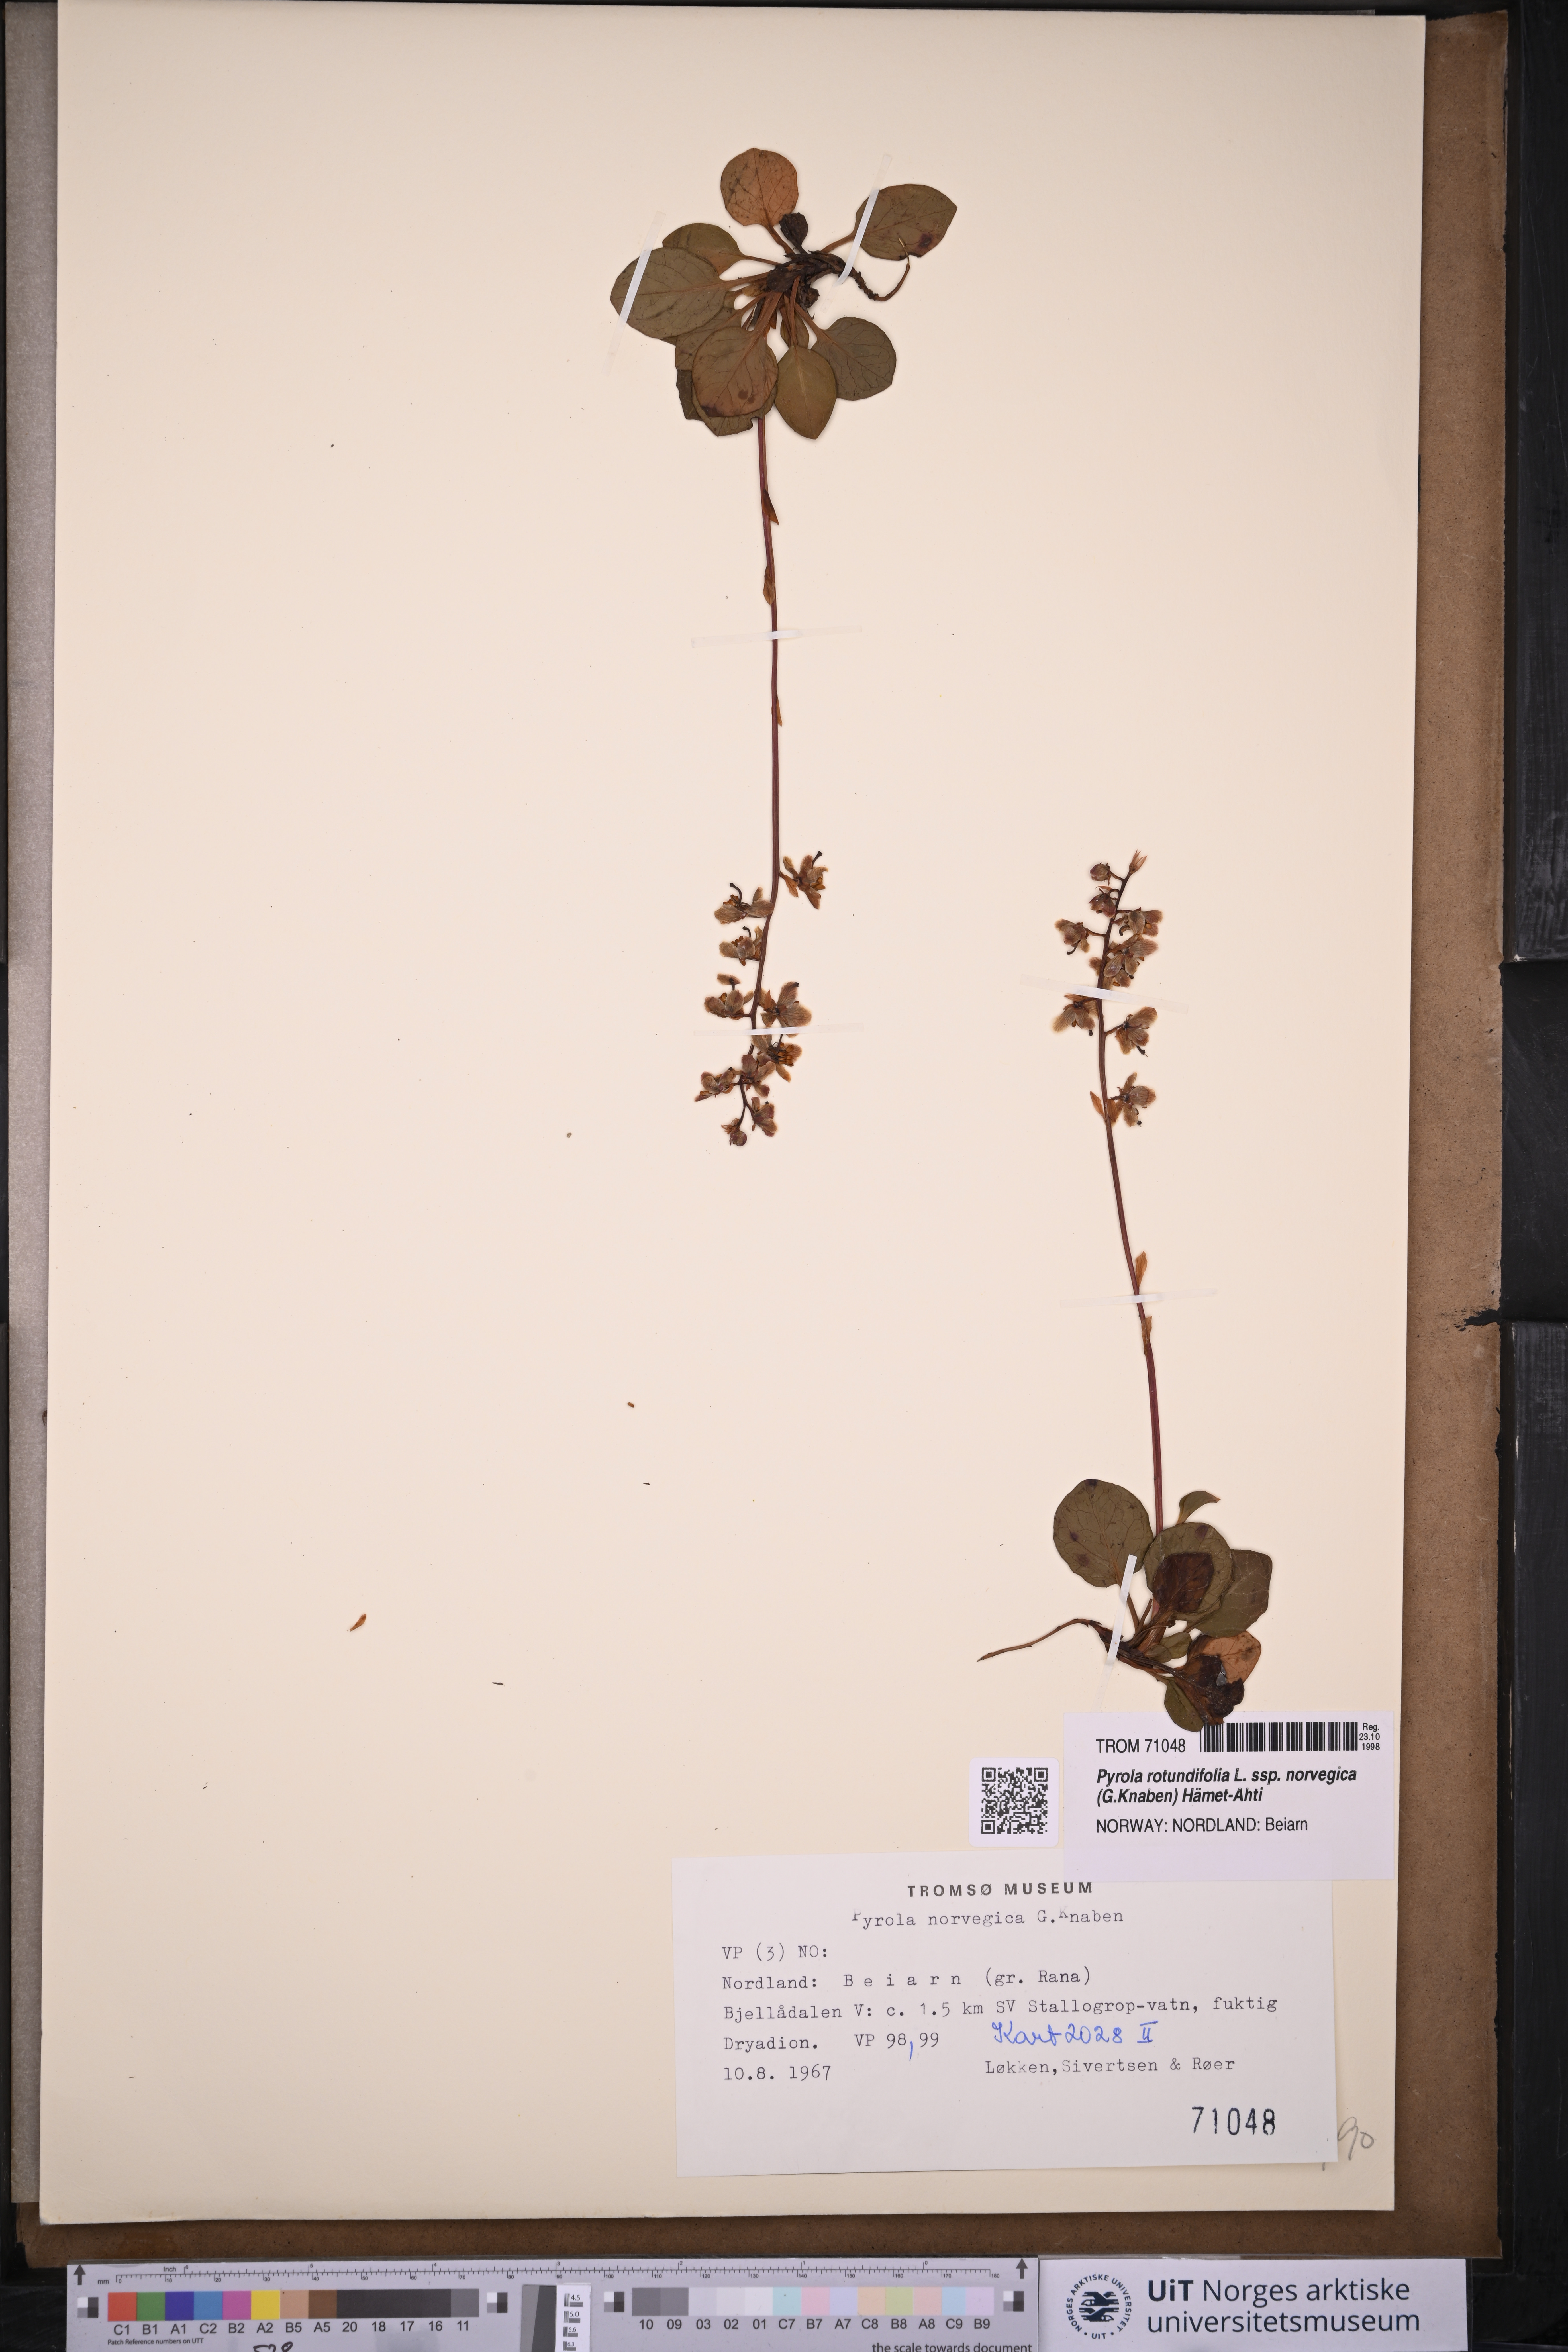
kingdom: Plantae
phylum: Tracheophyta
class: Magnoliopsida
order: Ericales
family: Ericaceae
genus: Pyrola
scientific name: Pyrola rotundifolia
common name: Round-leaved wintergreen
